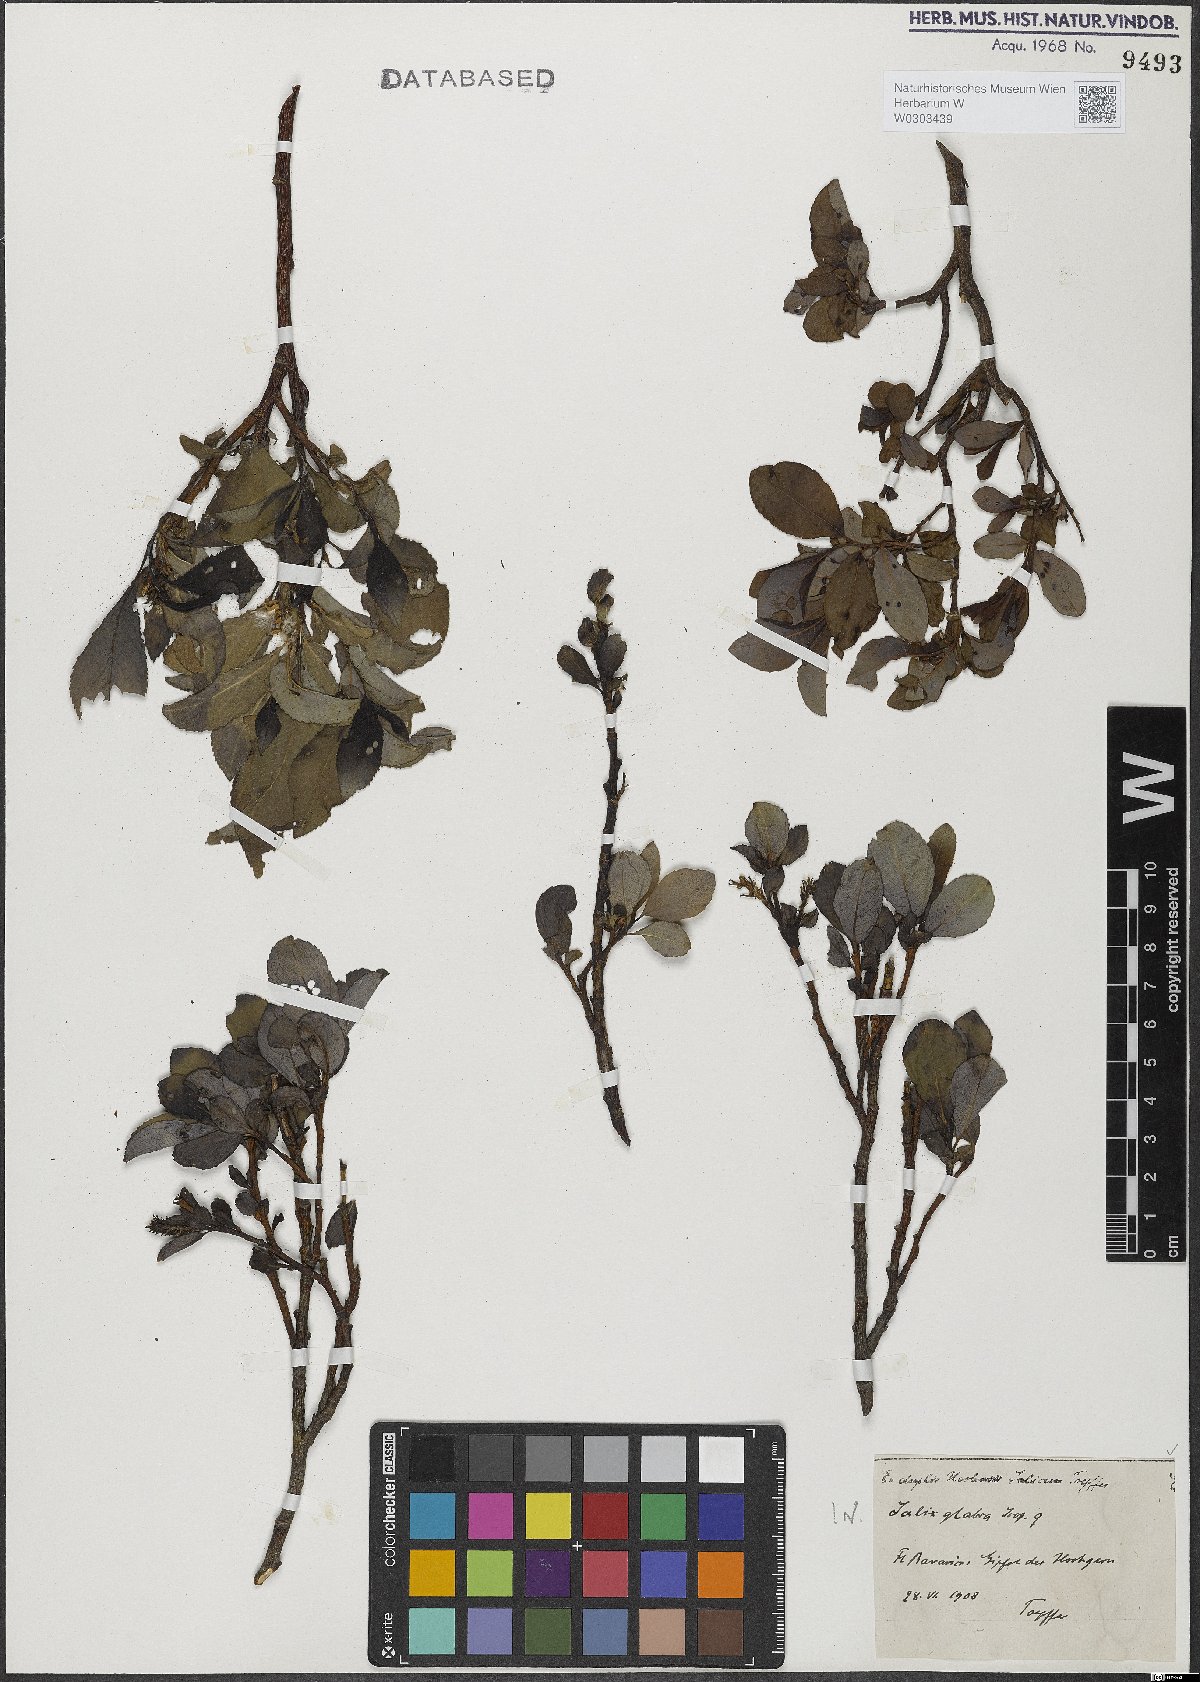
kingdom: Plantae
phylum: Tracheophyta
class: Magnoliopsida
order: Malpighiales
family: Salicaceae
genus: Salix
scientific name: Salix glabra
